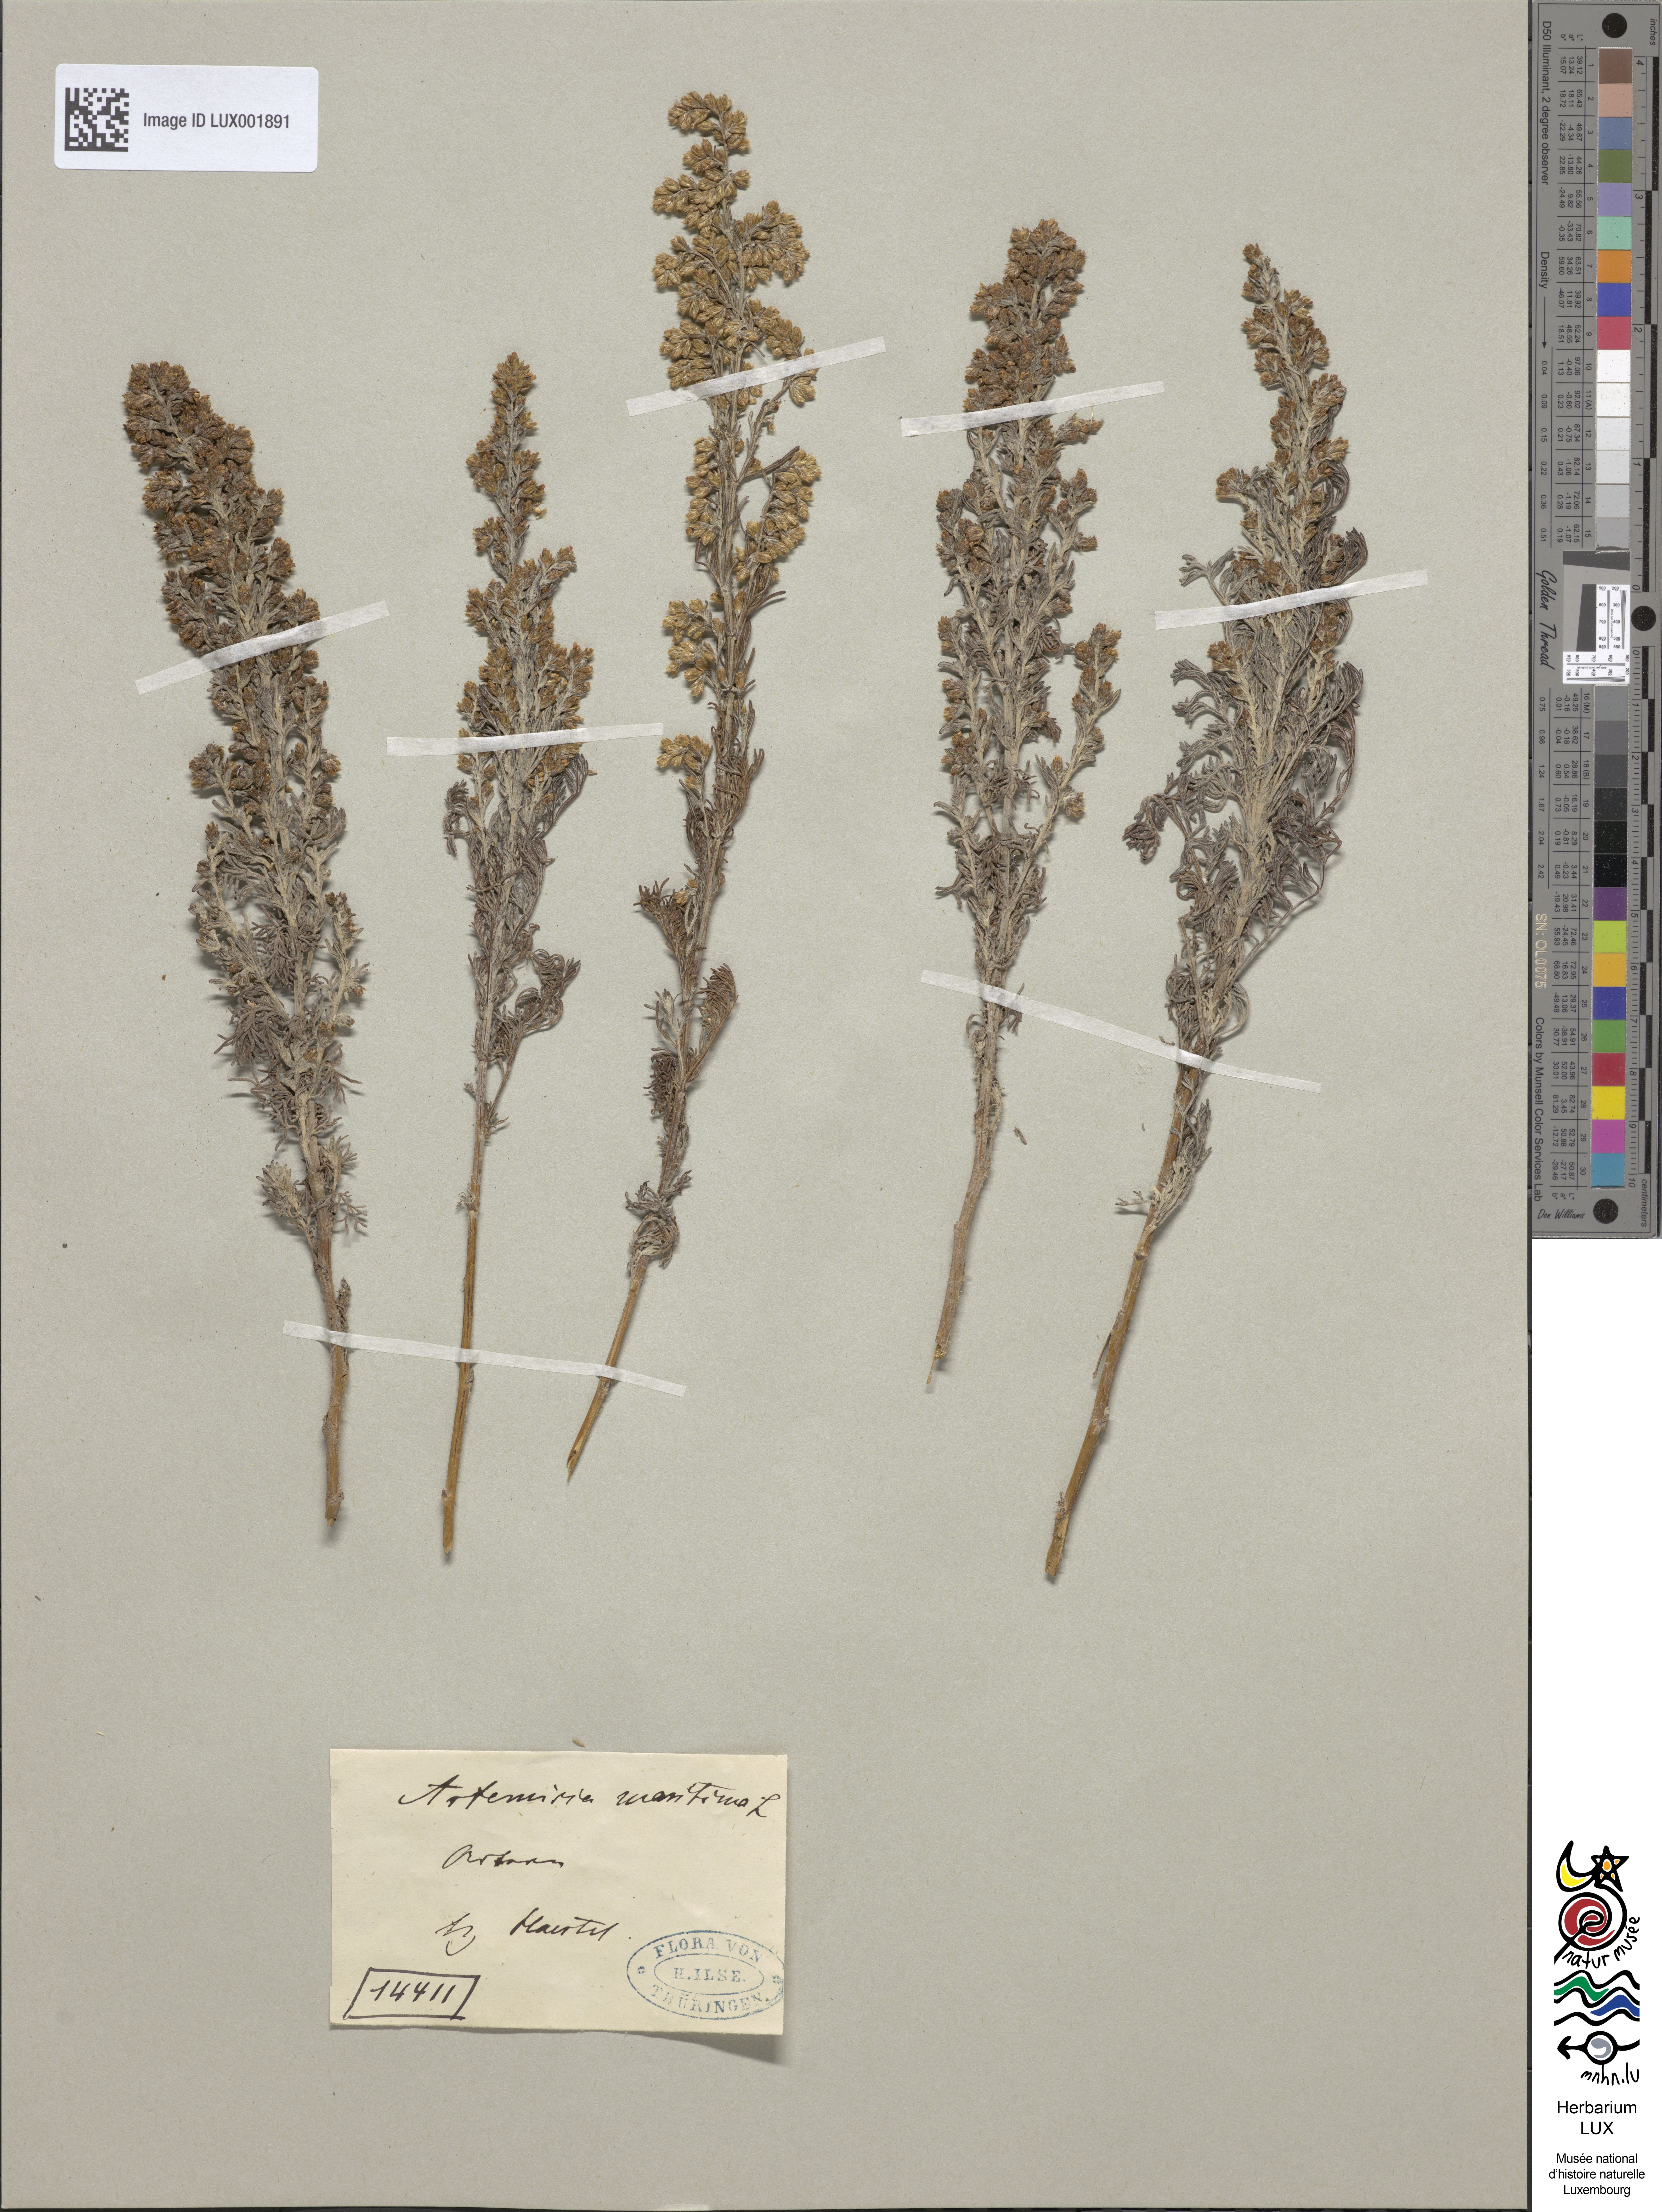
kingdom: Plantae
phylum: Tracheophyta
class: Magnoliopsida
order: Asterales
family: Asteraceae
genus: Artemisia
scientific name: Artemisia maritima
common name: Wormseed
